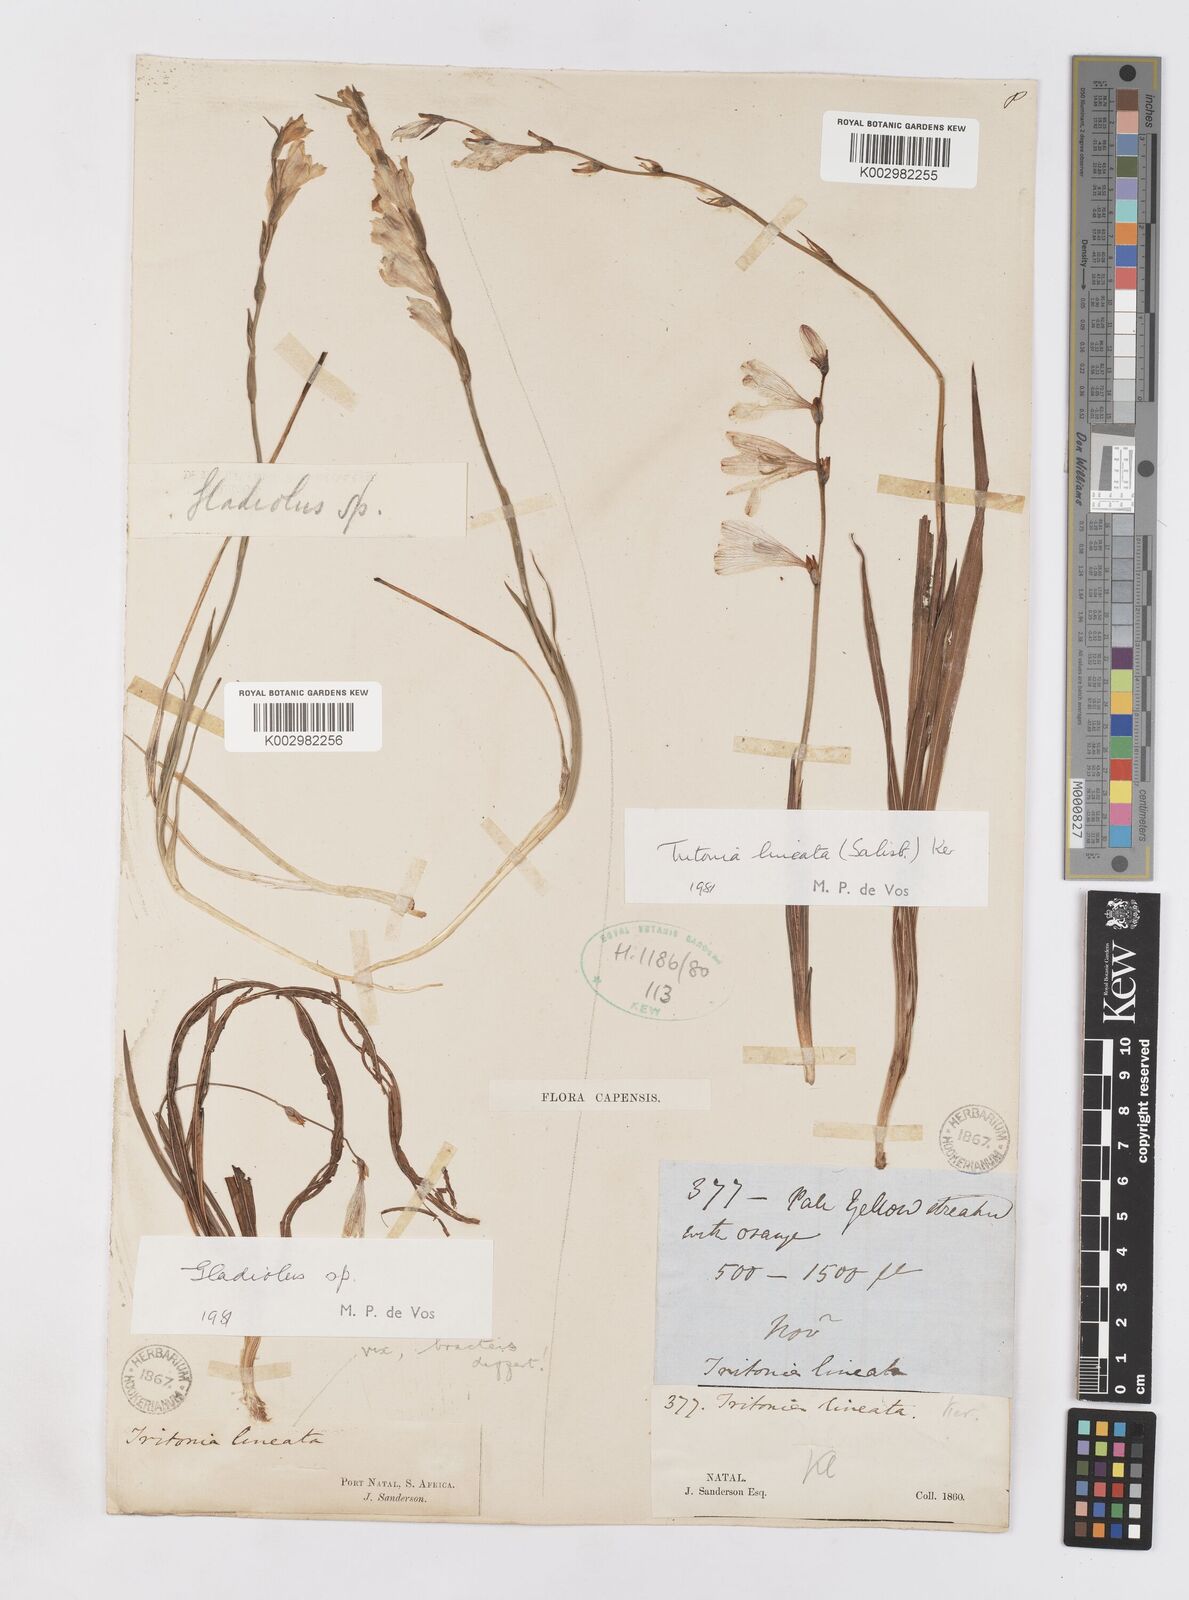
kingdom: Plantae
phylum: Tracheophyta
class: Liliopsida
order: Asparagales
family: Iridaceae
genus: Tritonia
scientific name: Tritonia gladiolaris
